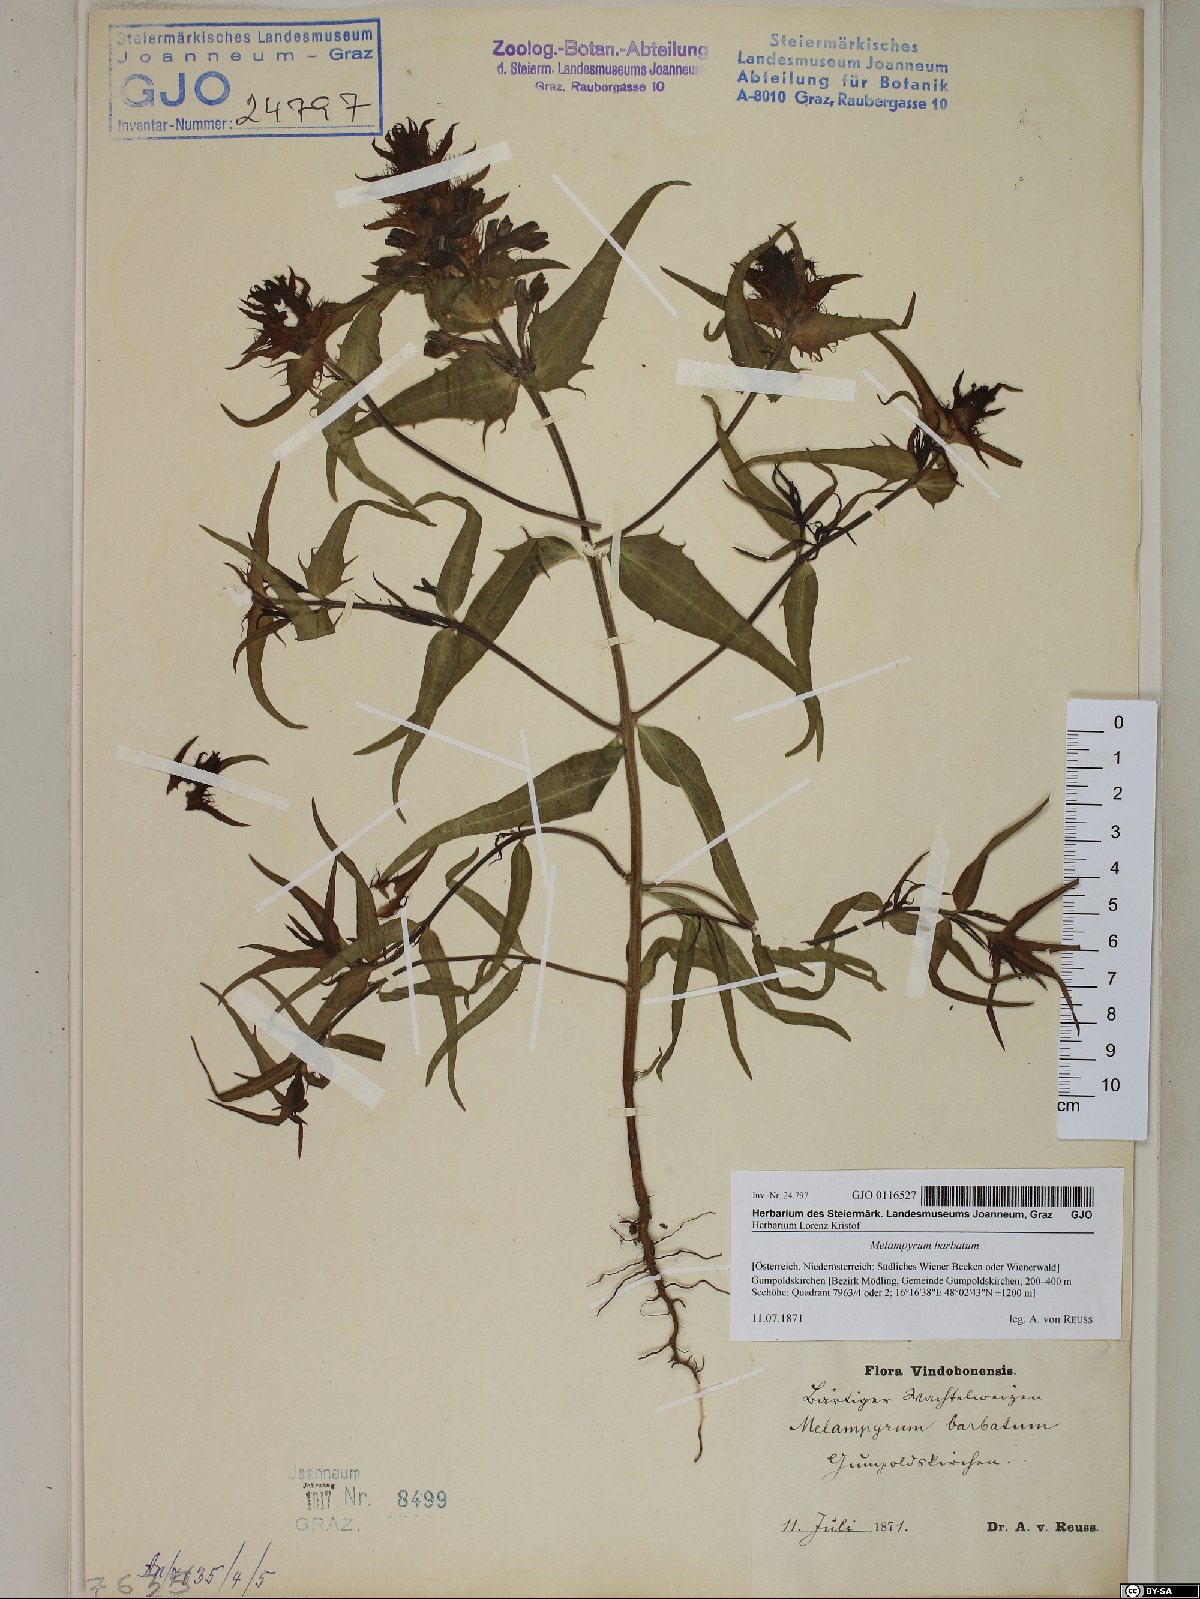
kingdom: Plantae
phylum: Tracheophyta
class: Magnoliopsida
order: Lamiales
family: Orobanchaceae
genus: Melampyrum
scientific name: Melampyrum barbatum
